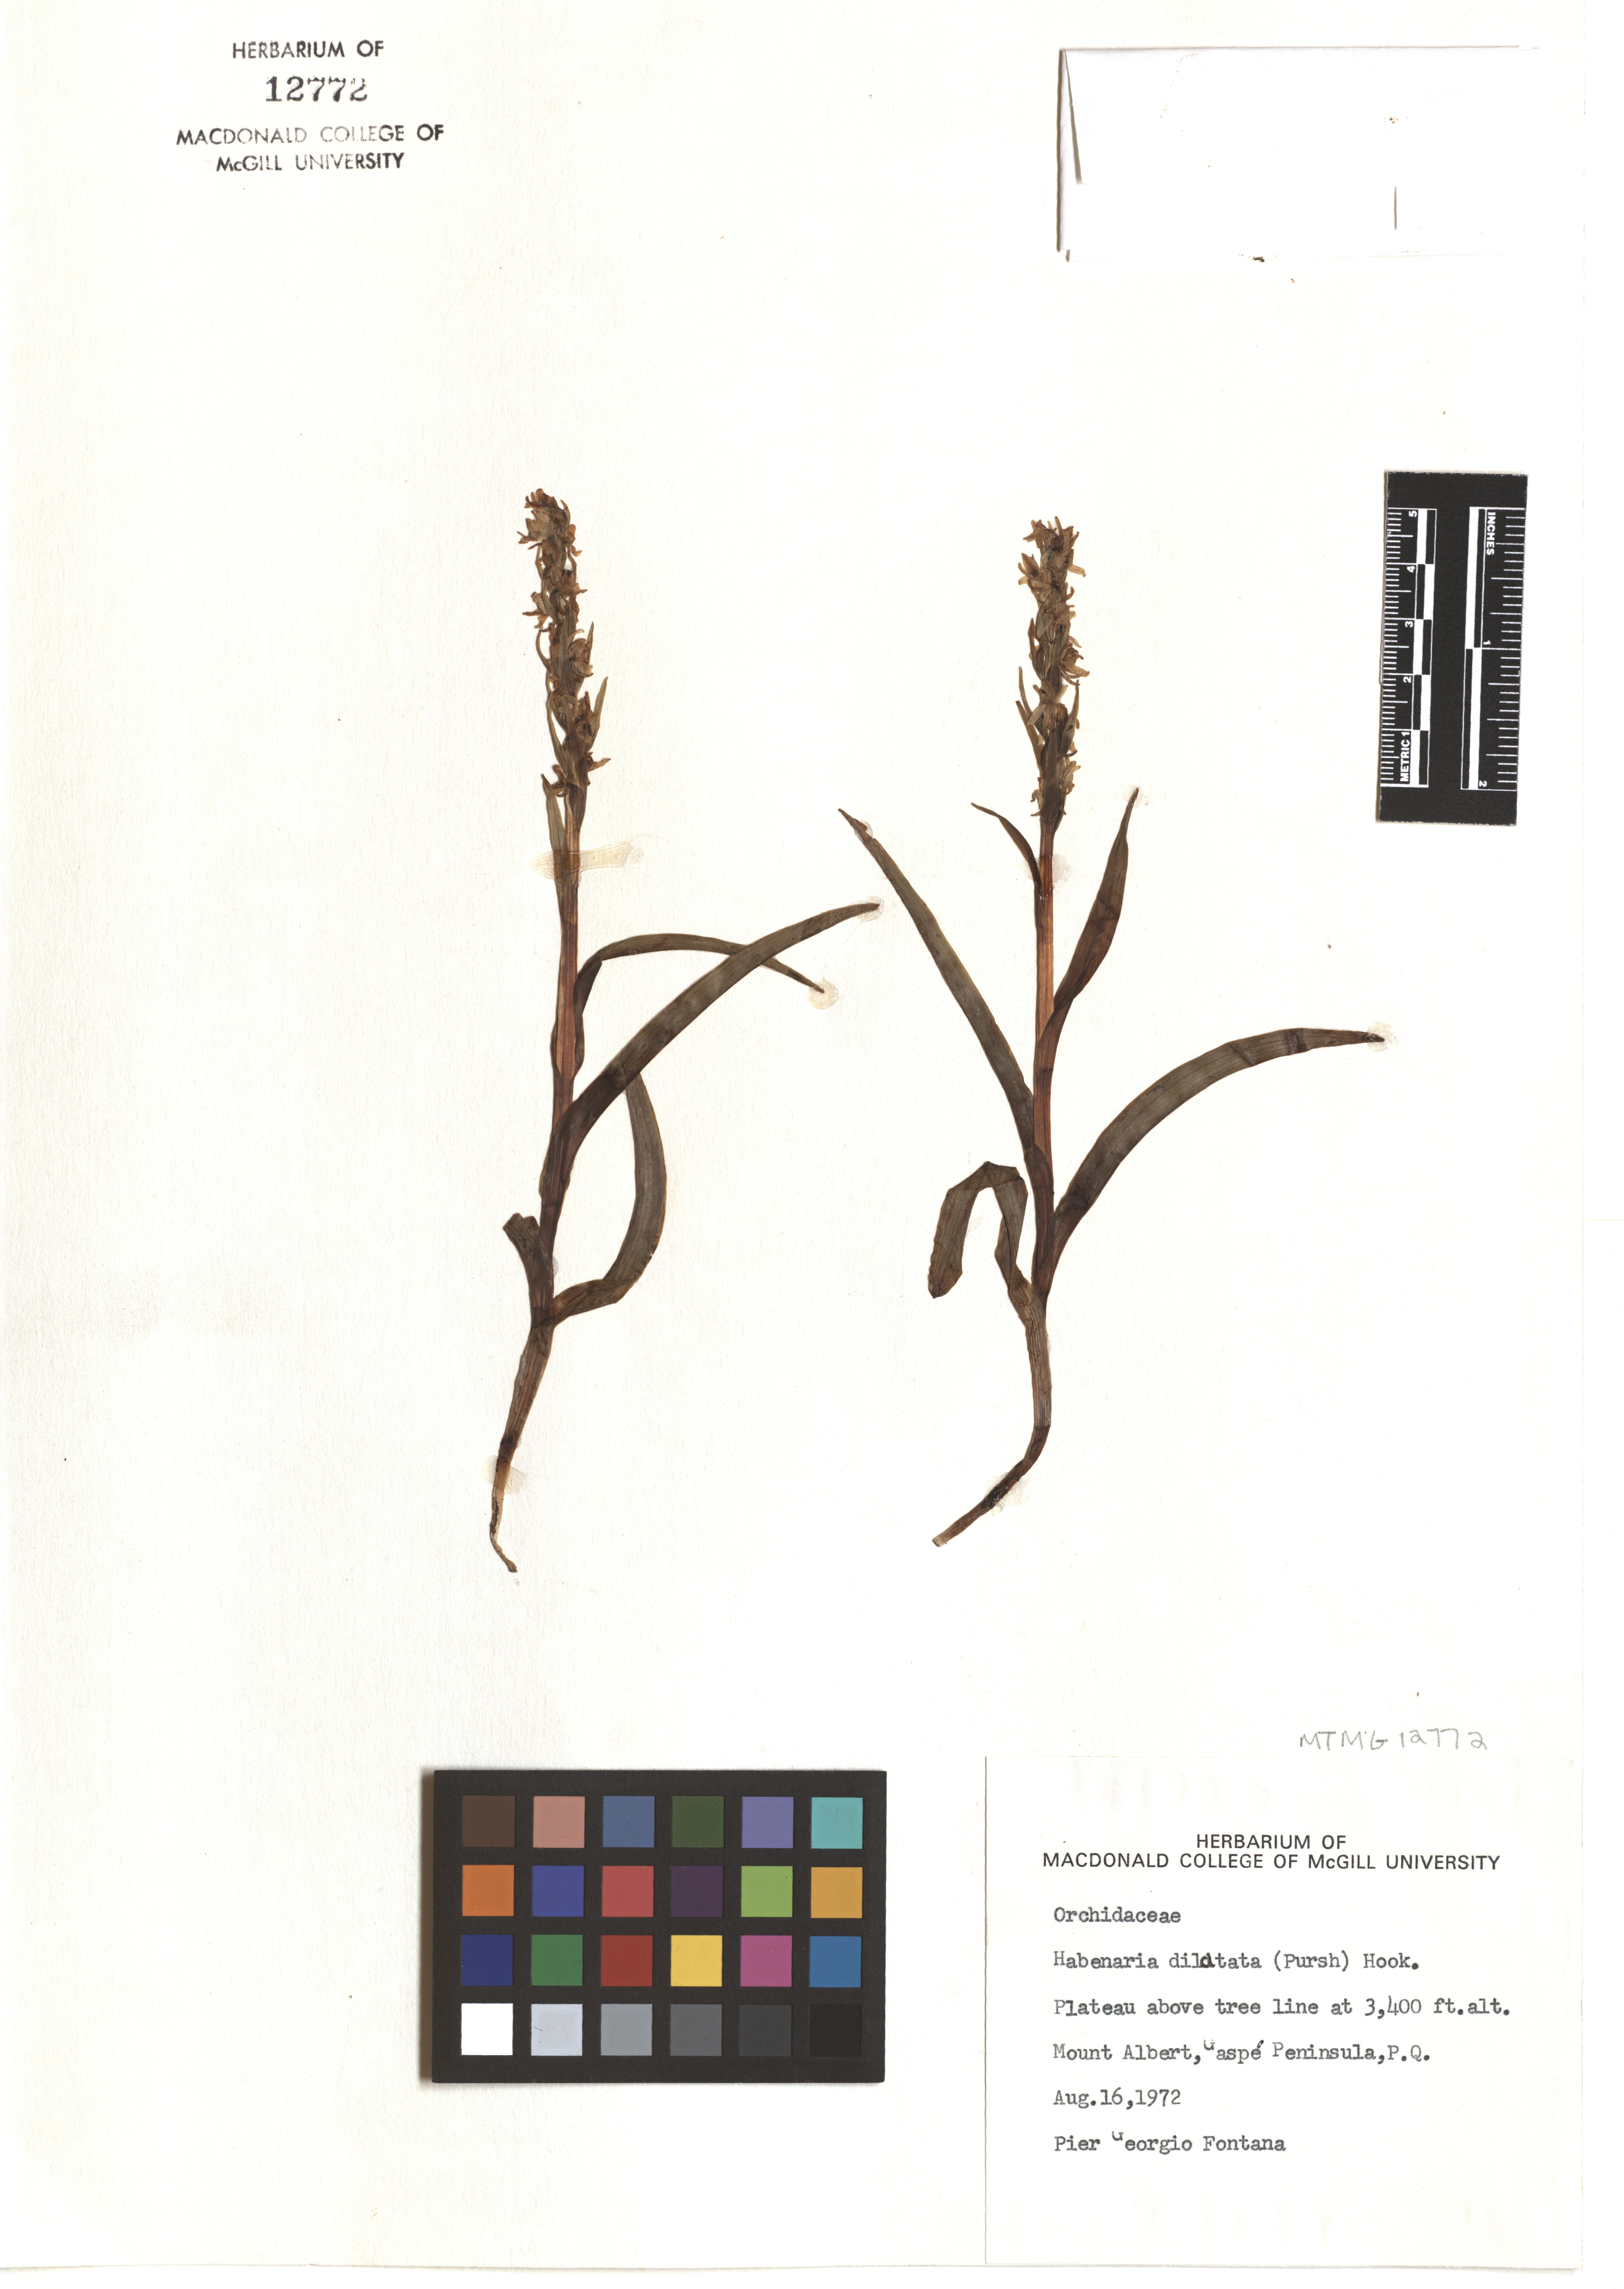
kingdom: Plantae
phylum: Tracheophyta
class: Liliopsida
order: Asparagales
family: Orchidaceae
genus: Platanthera
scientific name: Platanthera dilatata
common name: Bog candles
